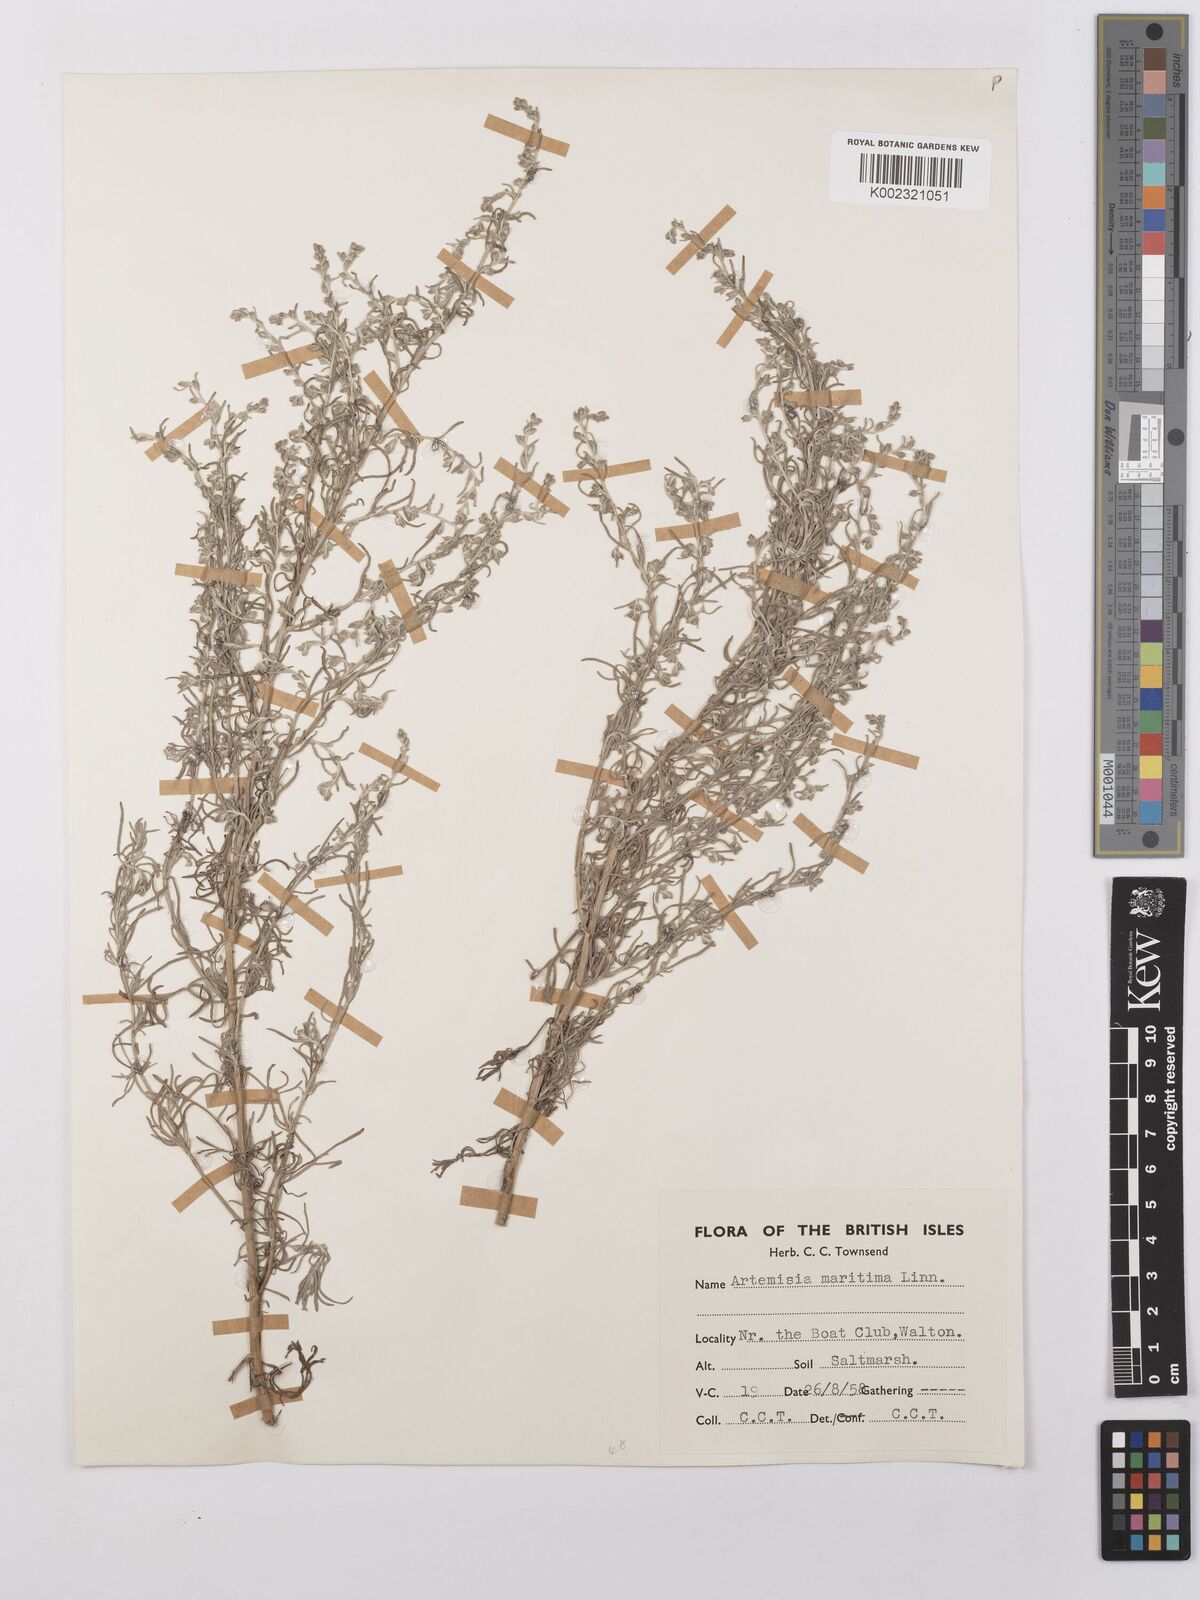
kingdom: Plantae
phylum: Tracheophyta
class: Magnoliopsida
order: Asterales
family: Asteraceae
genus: Artemisia
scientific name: Artemisia maritima
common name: Wormseed
